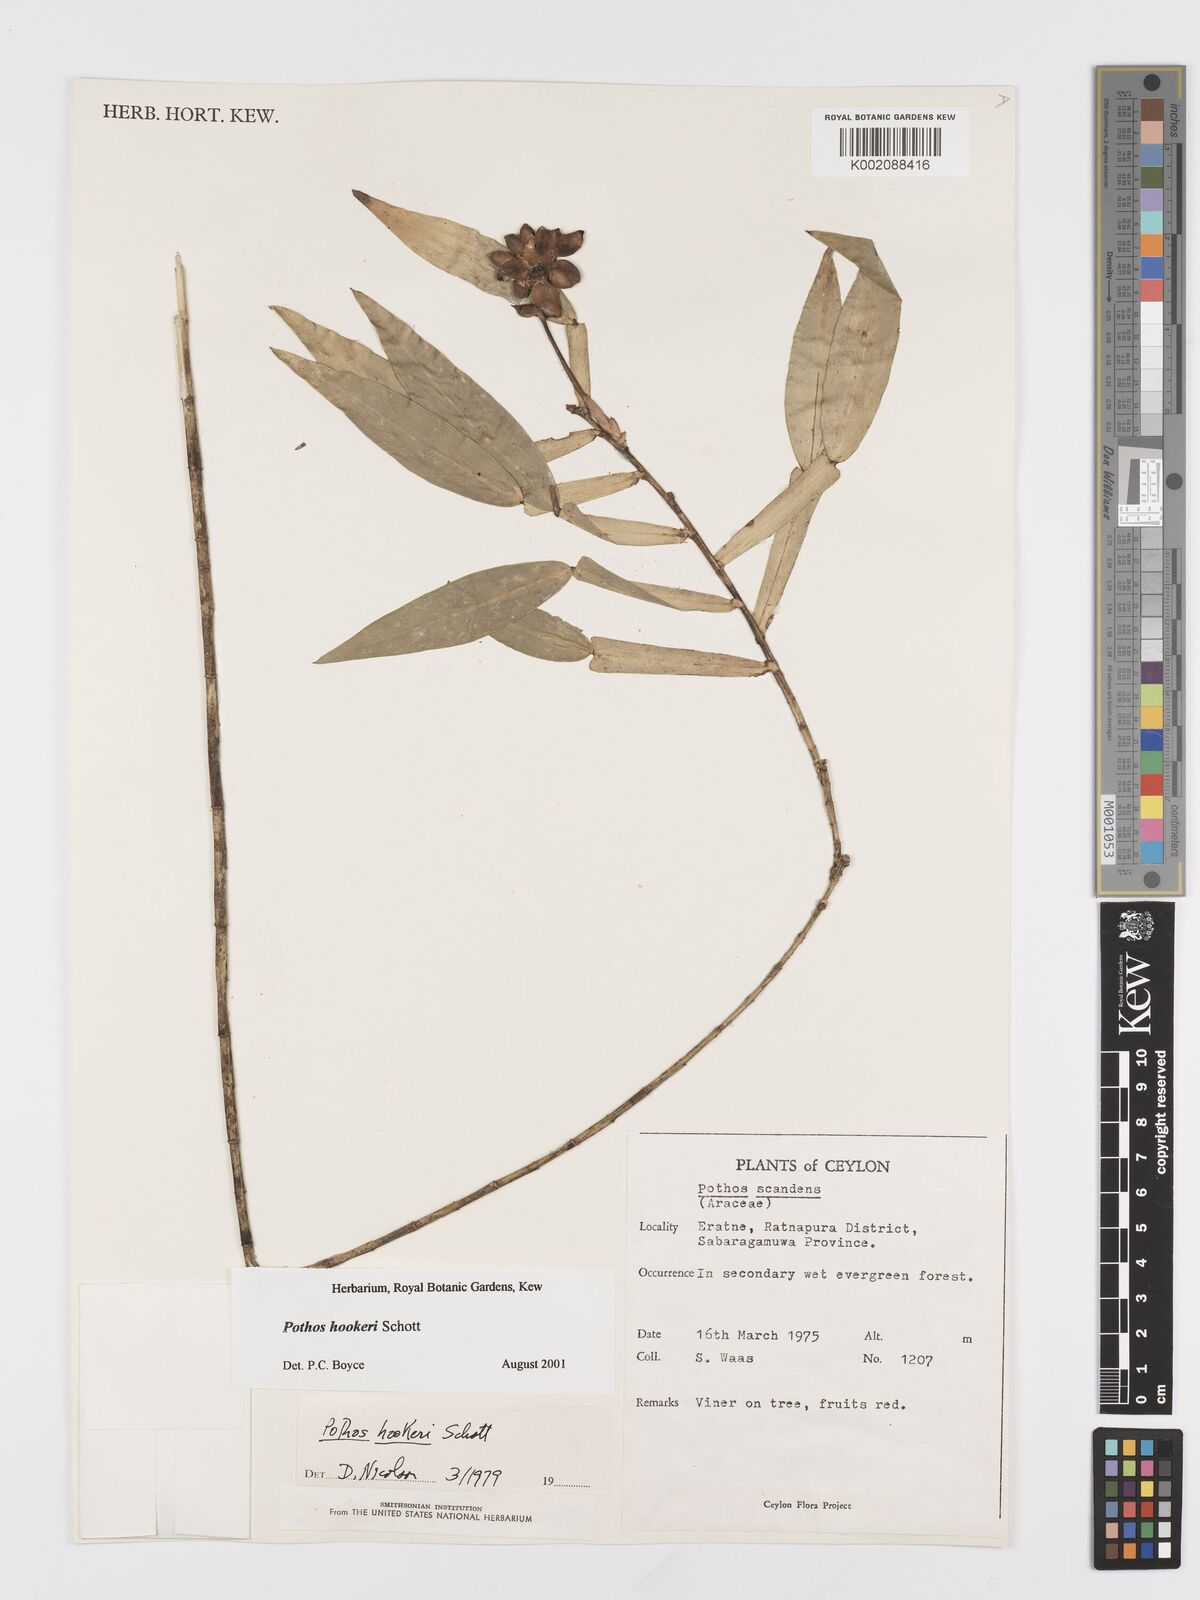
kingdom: Plantae
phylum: Tracheophyta
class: Liliopsida
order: Alismatales
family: Araceae
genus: Pothos
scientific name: Pothos hookeri
